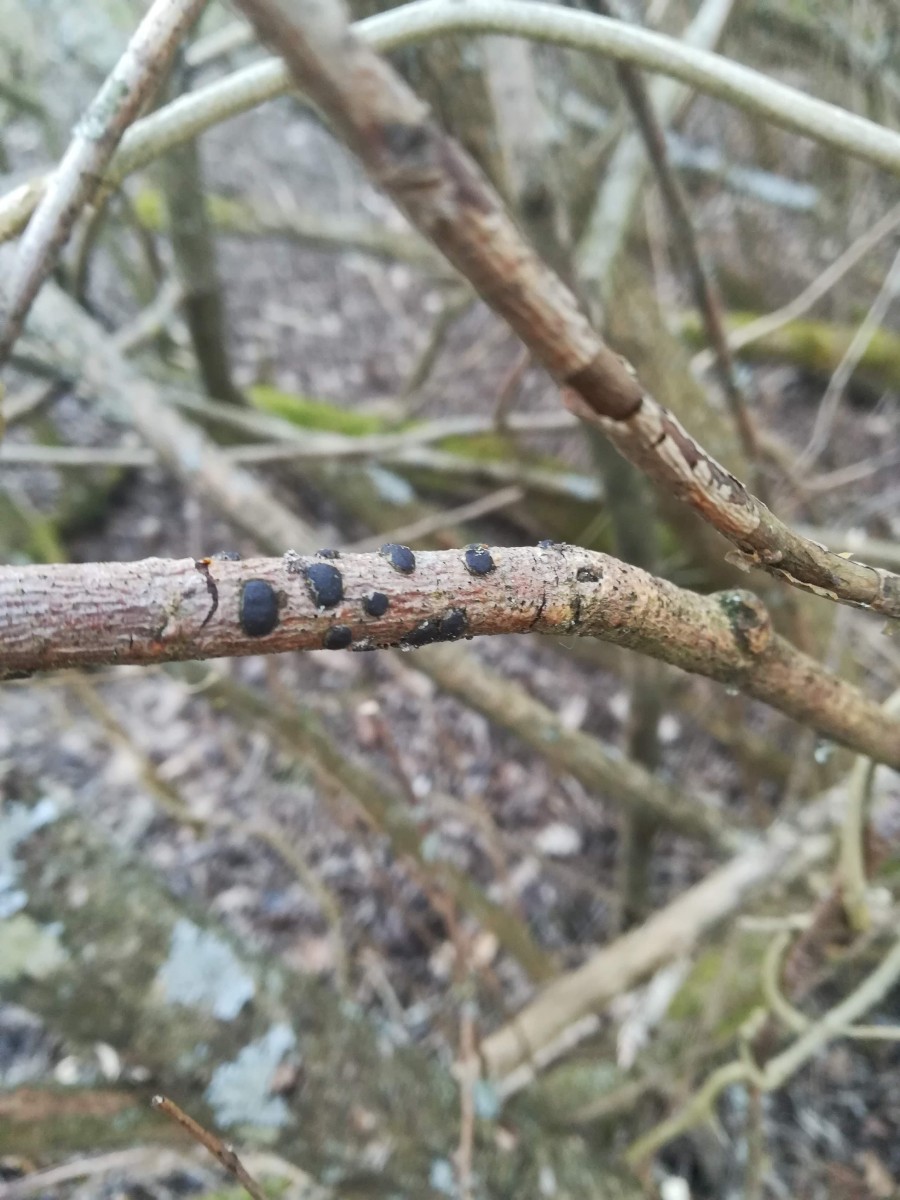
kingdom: Fungi
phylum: Ascomycota
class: Sordariomycetes
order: Xylariales
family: Diatrypaceae
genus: Diatrype
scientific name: Diatrype bullata
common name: pile-kulskorpe
